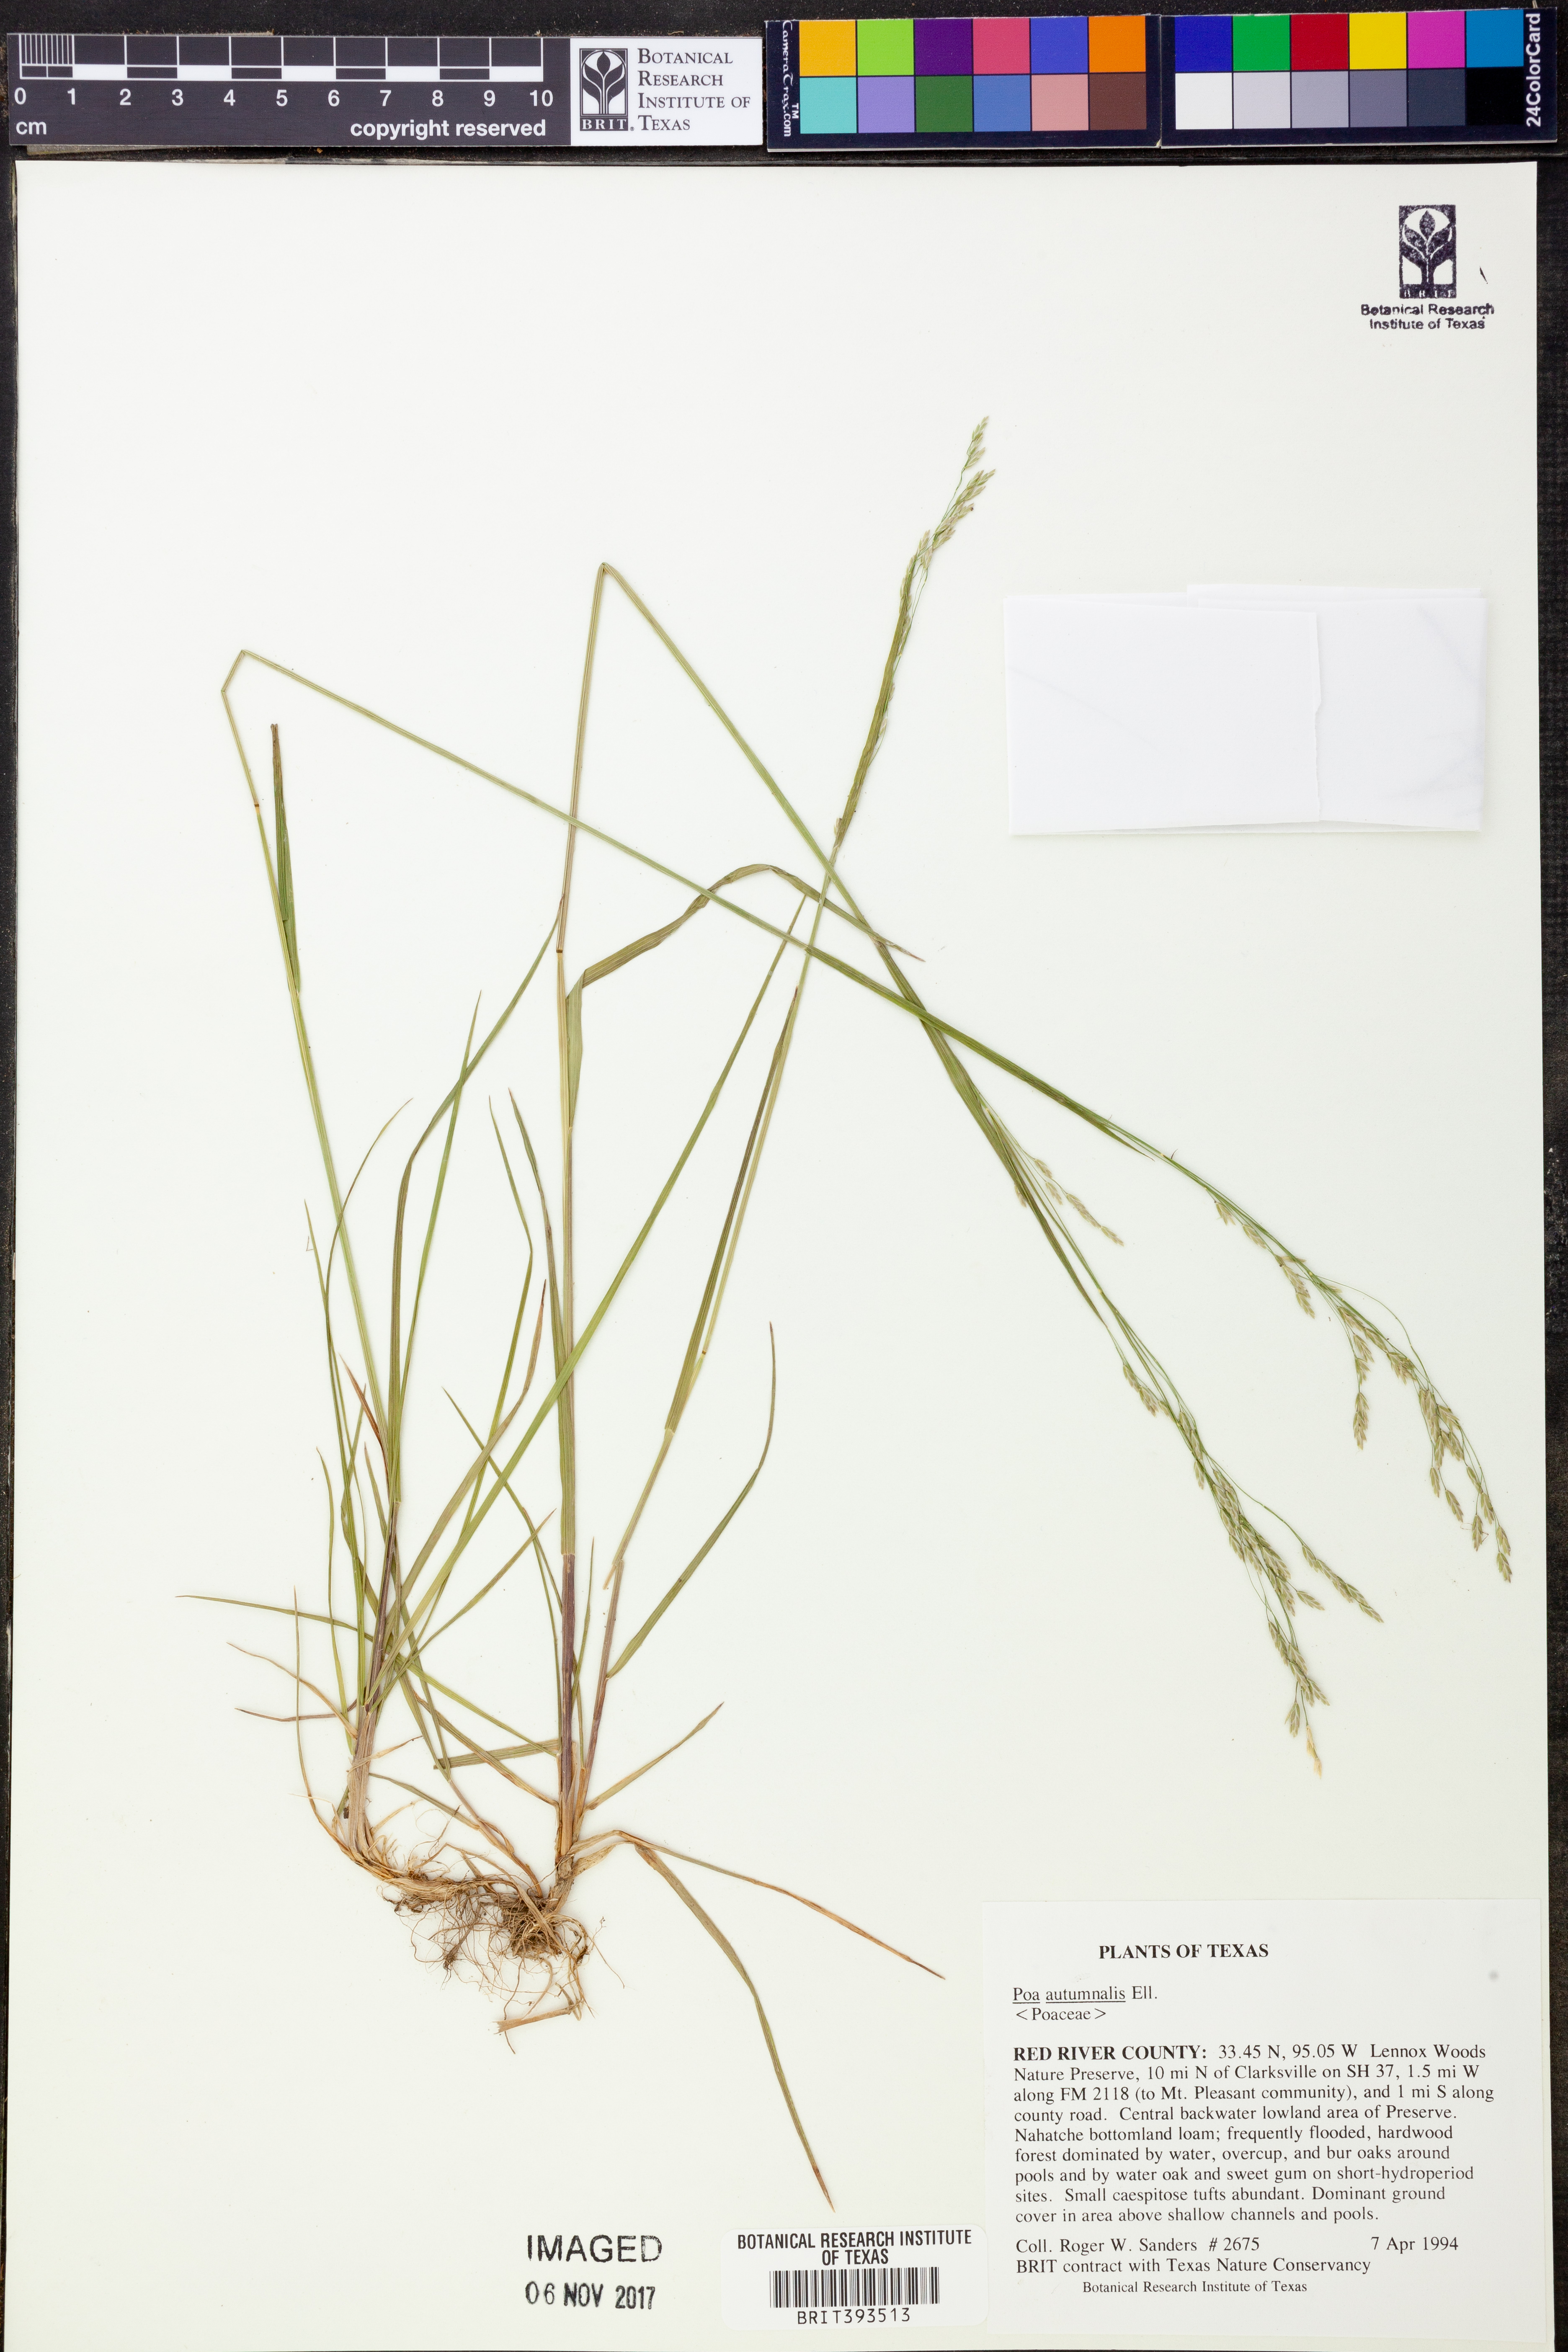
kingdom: Plantae
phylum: Tracheophyta
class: Liliopsida
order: Poales
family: Poaceae
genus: Poa
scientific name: Poa autumnalis
